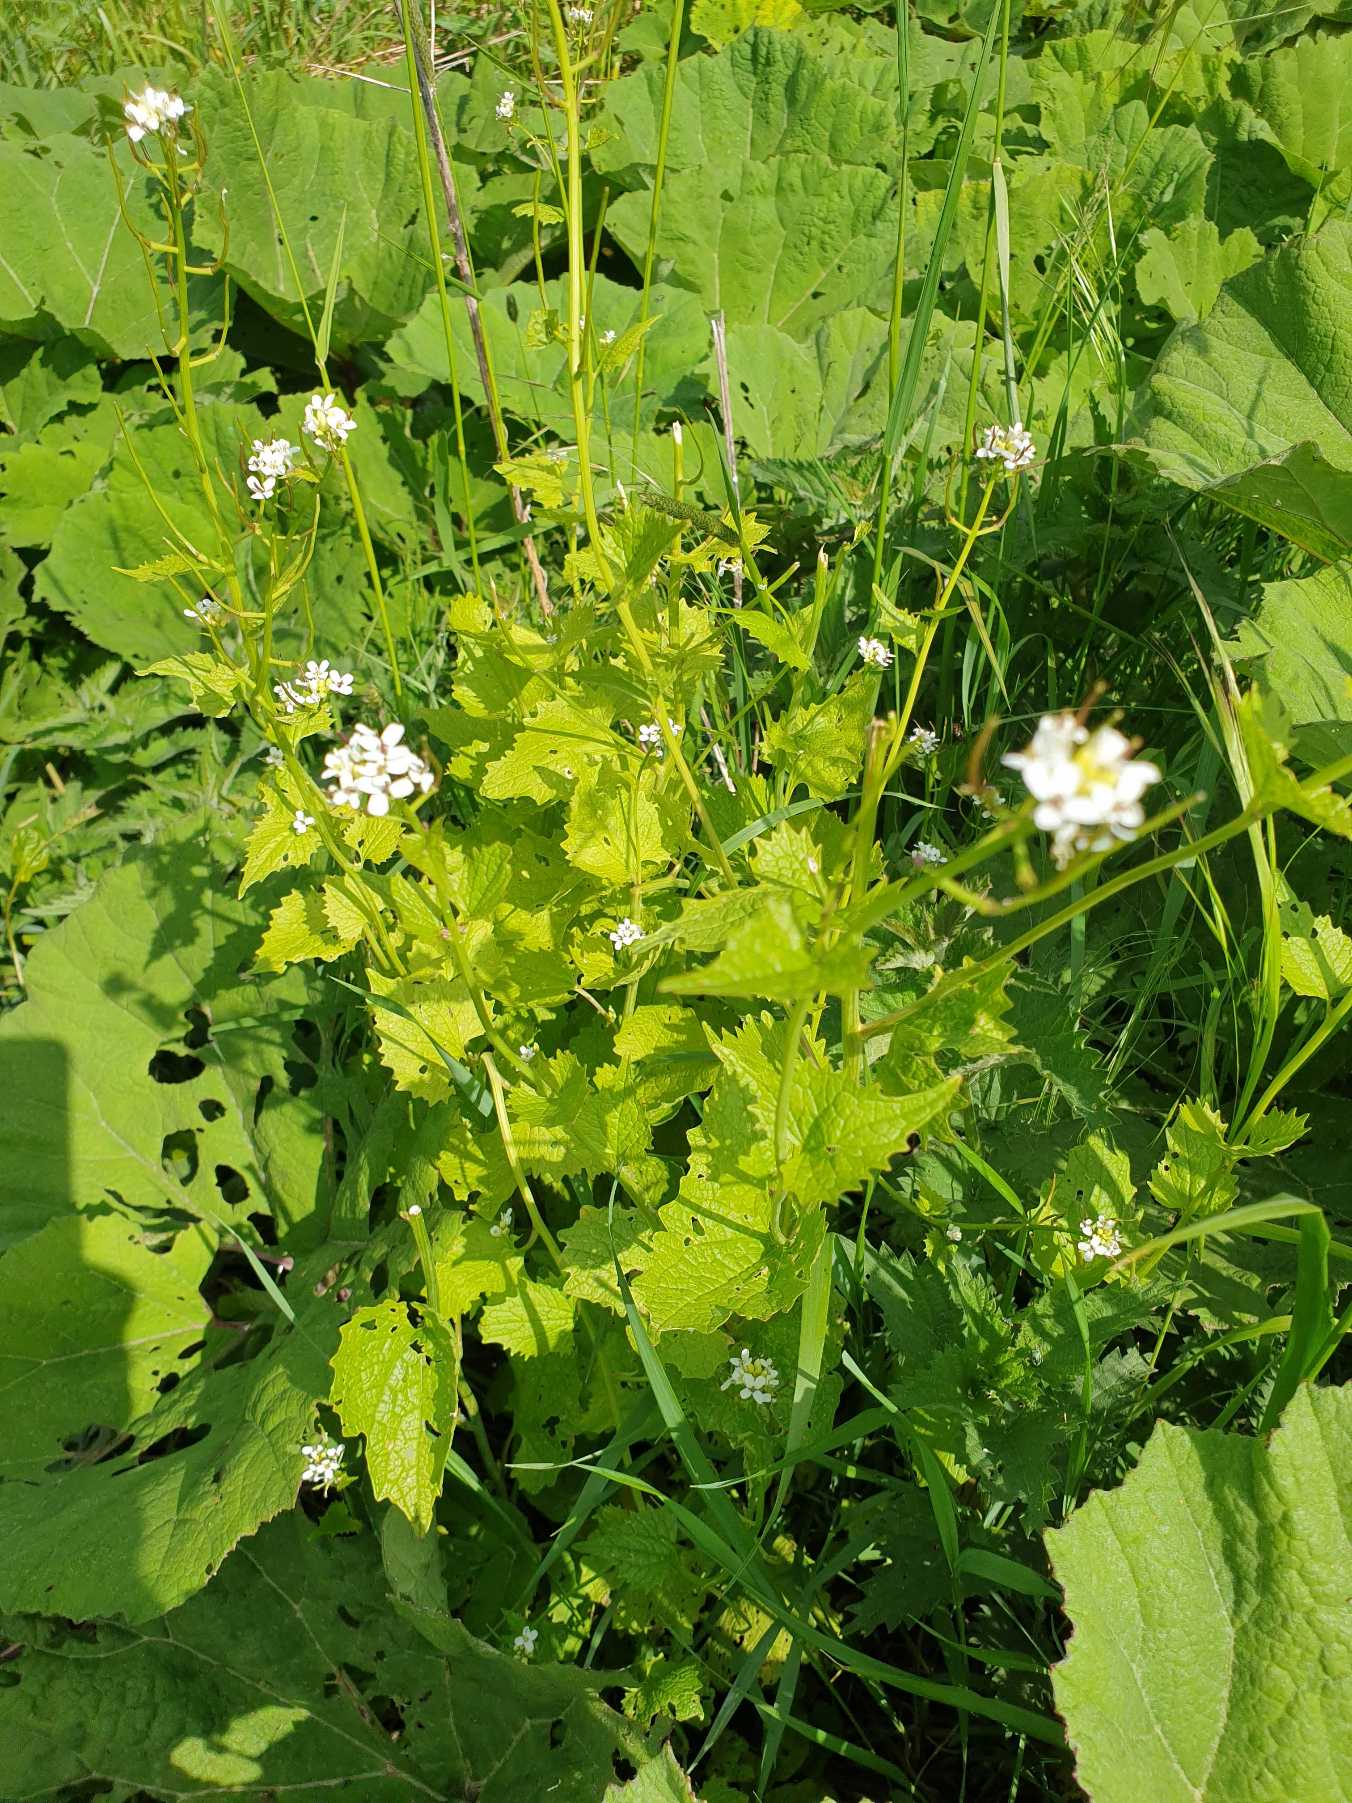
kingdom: Plantae
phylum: Tracheophyta
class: Magnoliopsida
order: Brassicales
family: Brassicaceae
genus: Alliaria
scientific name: Alliaria petiolata
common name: Løgkarse
